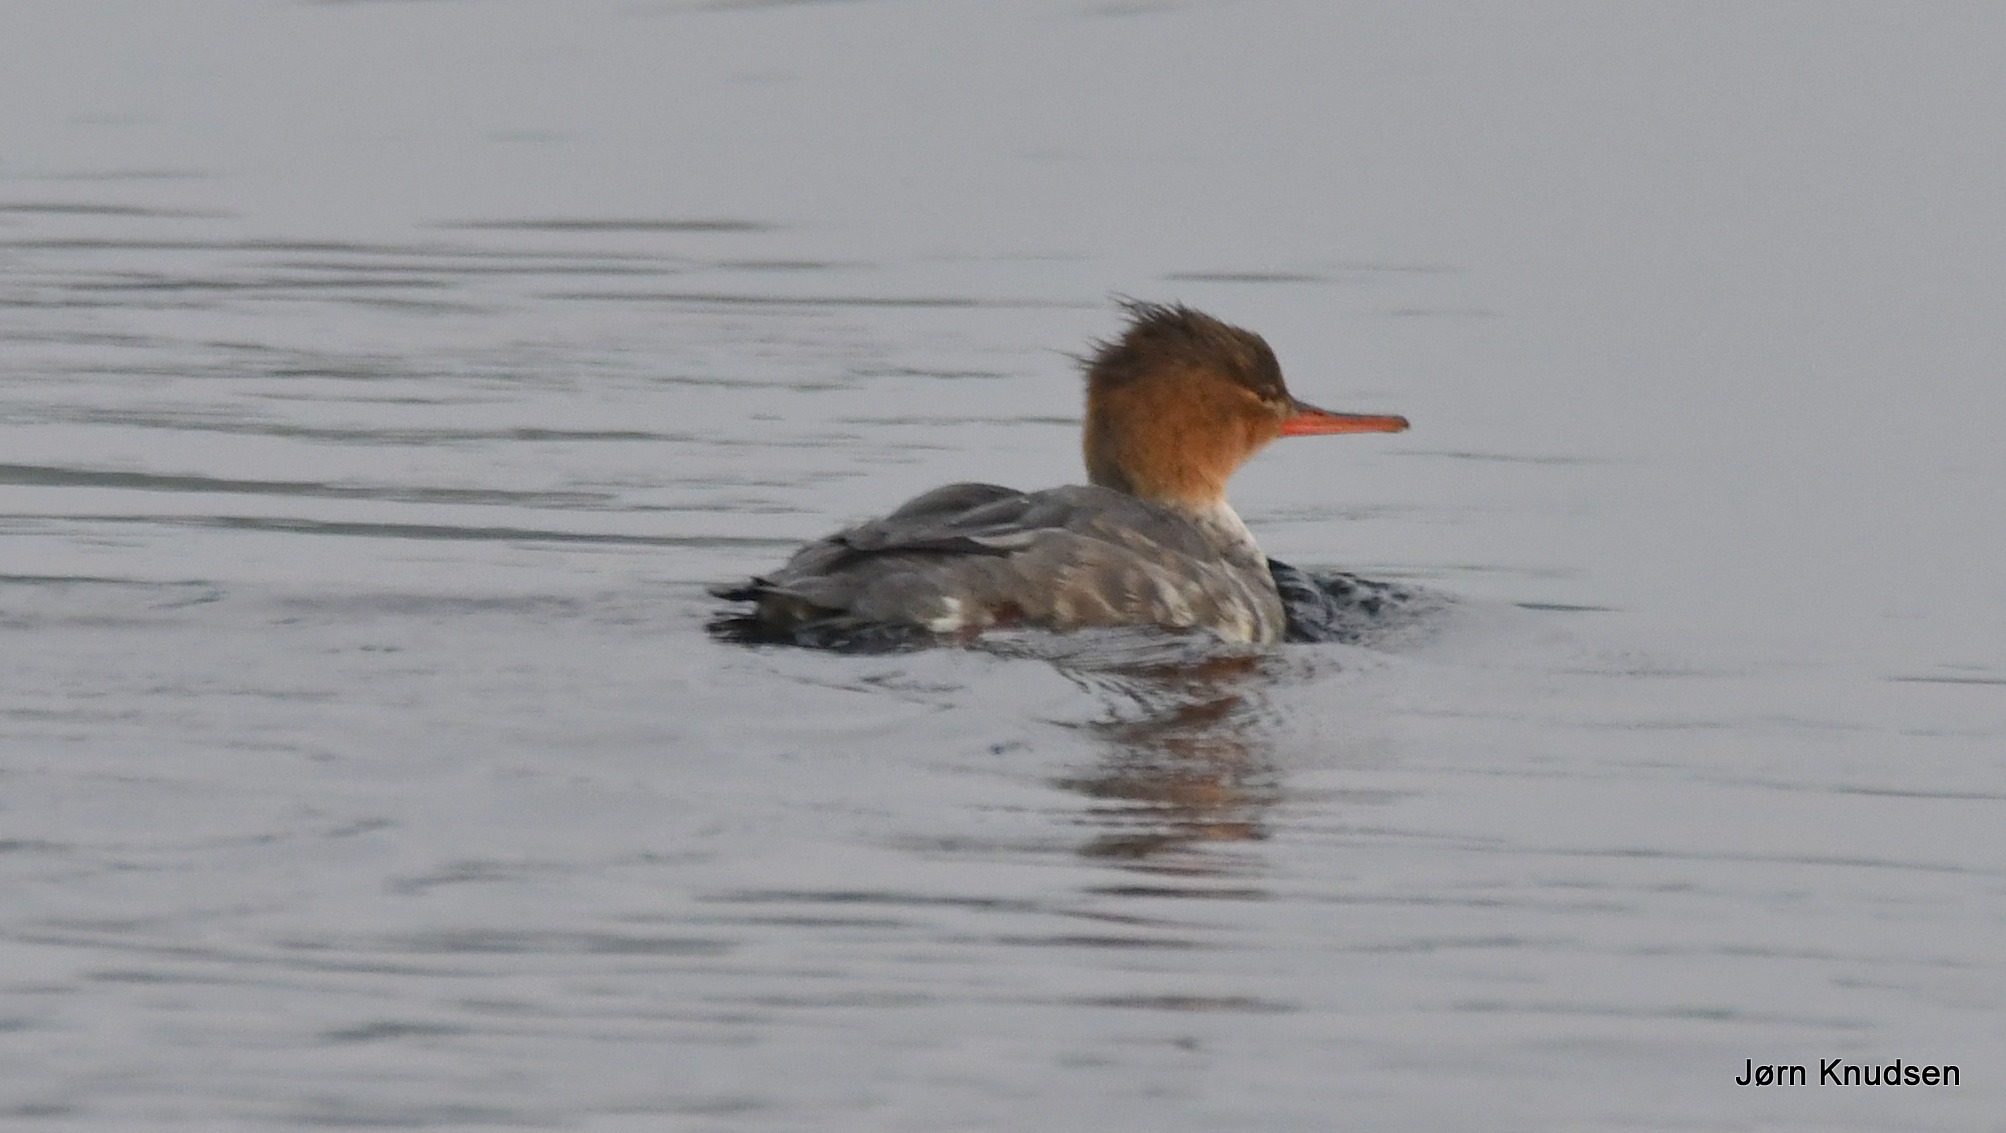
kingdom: Animalia
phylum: Chordata
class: Aves
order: Anseriformes
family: Anatidae
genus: Mergus
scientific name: Mergus serrator
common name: Toppet skallesluger
